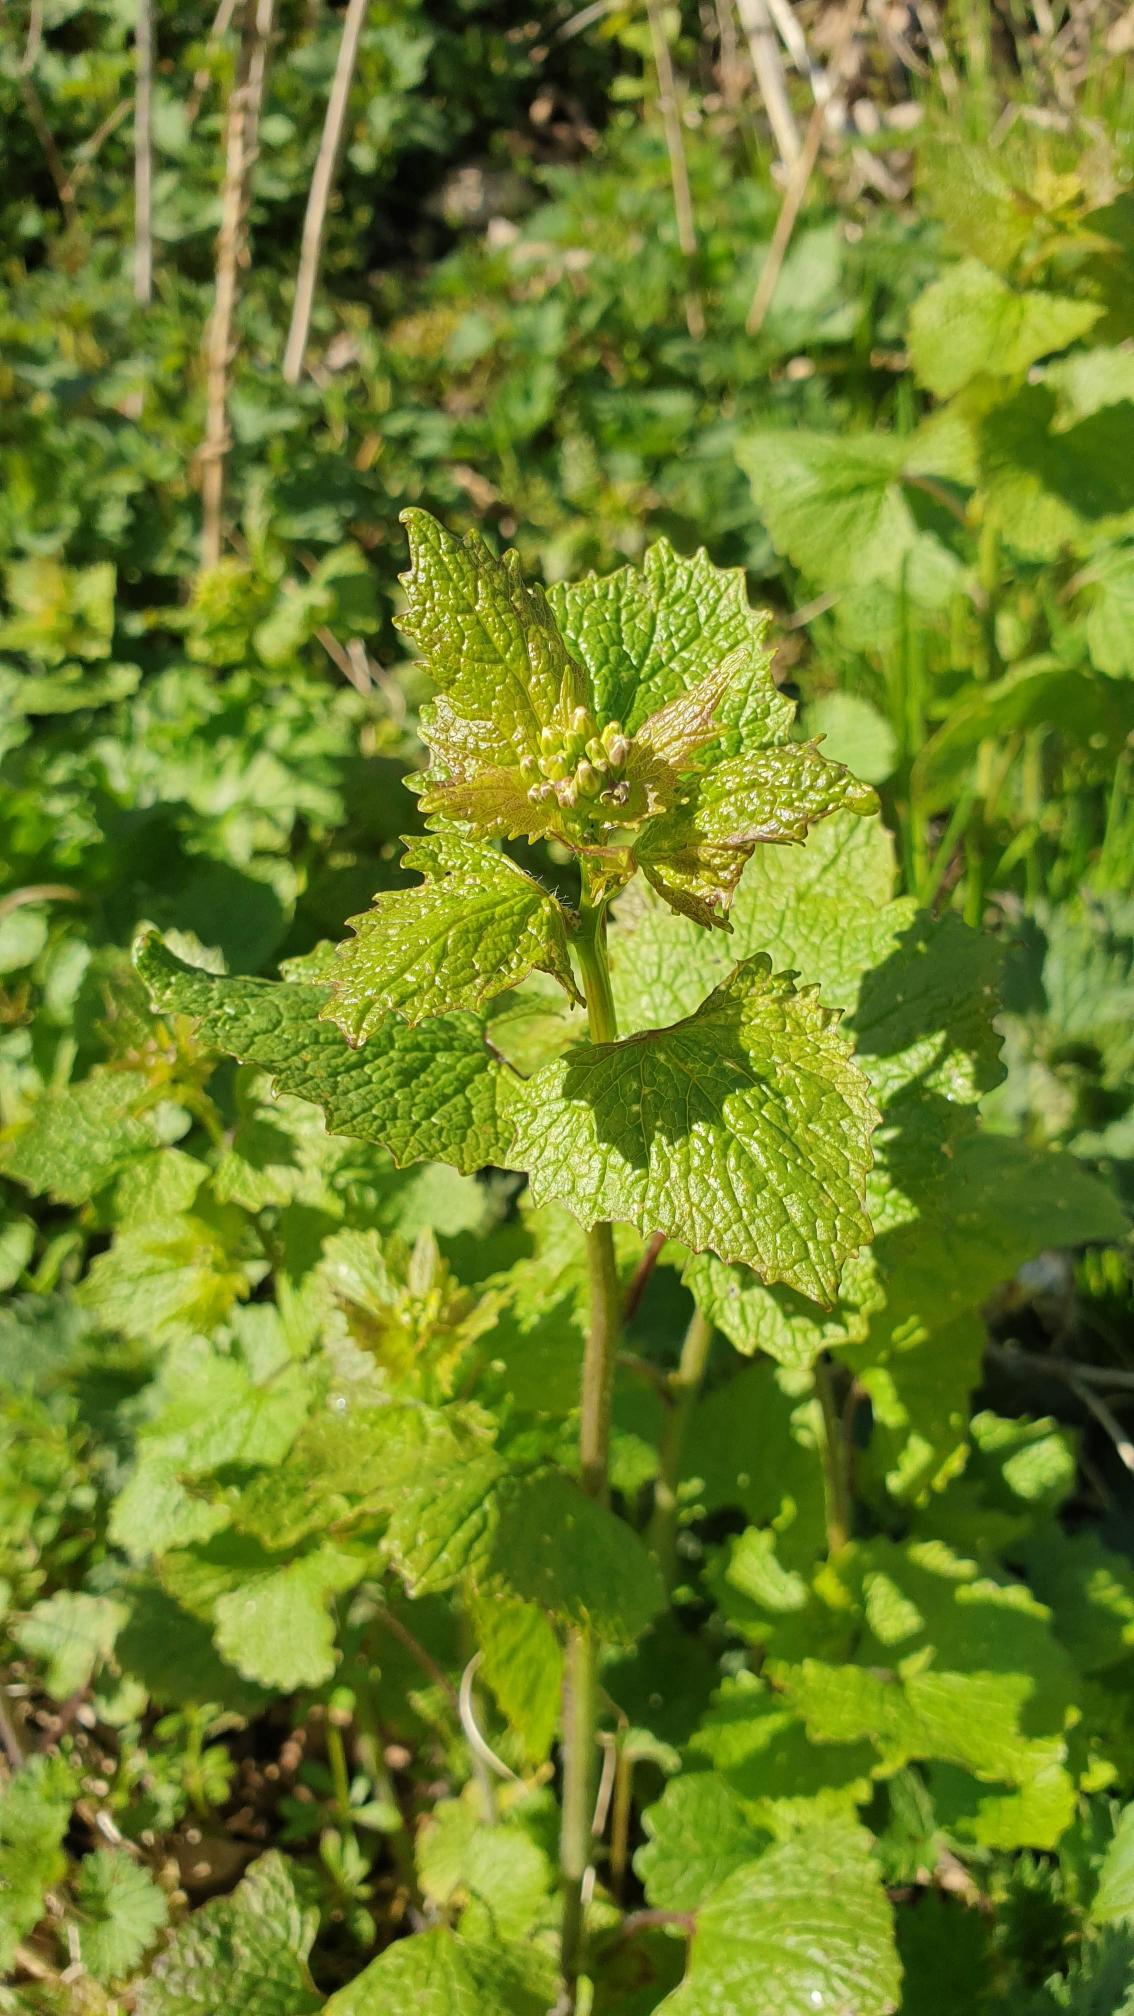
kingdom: Plantae
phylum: Tracheophyta
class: Magnoliopsida
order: Brassicales
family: Brassicaceae
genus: Alliaria
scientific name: Alliaria petiolata
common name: Løgkarse
